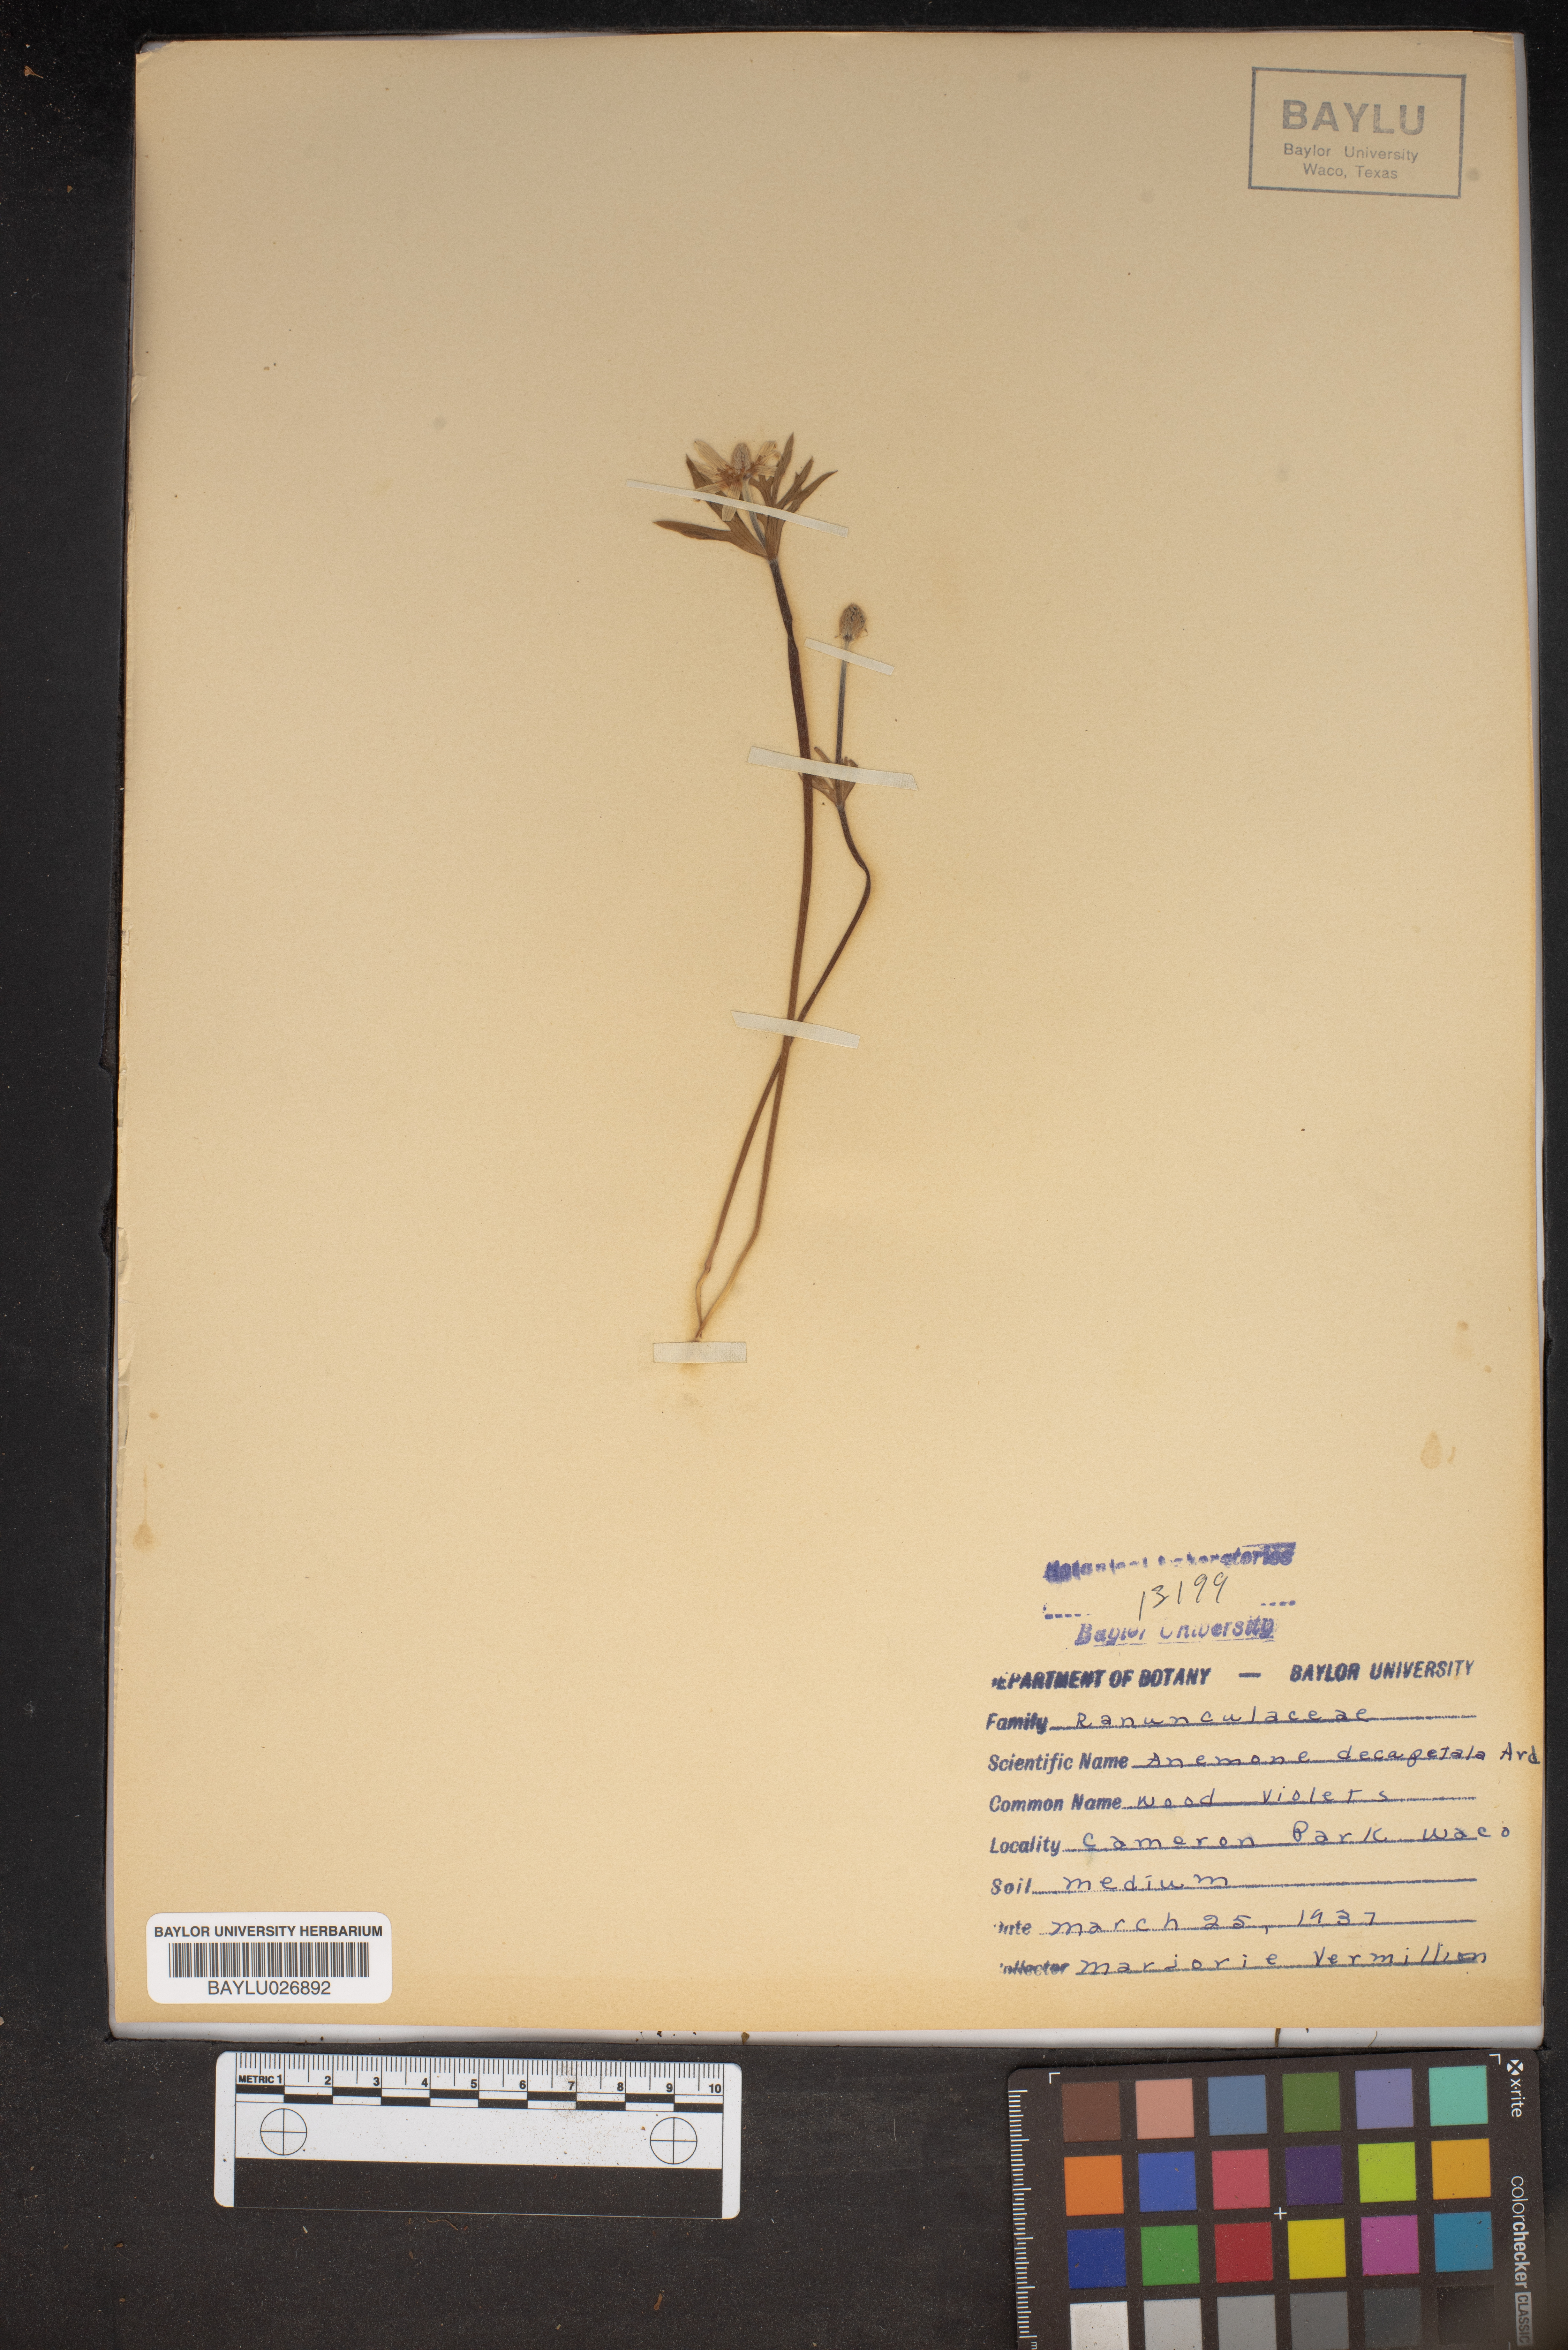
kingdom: Plantae
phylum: Tracheophyta
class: Magnoliopsida
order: Ranunculales
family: Ranunculaceae
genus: Anemone
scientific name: Anemone decapetala
